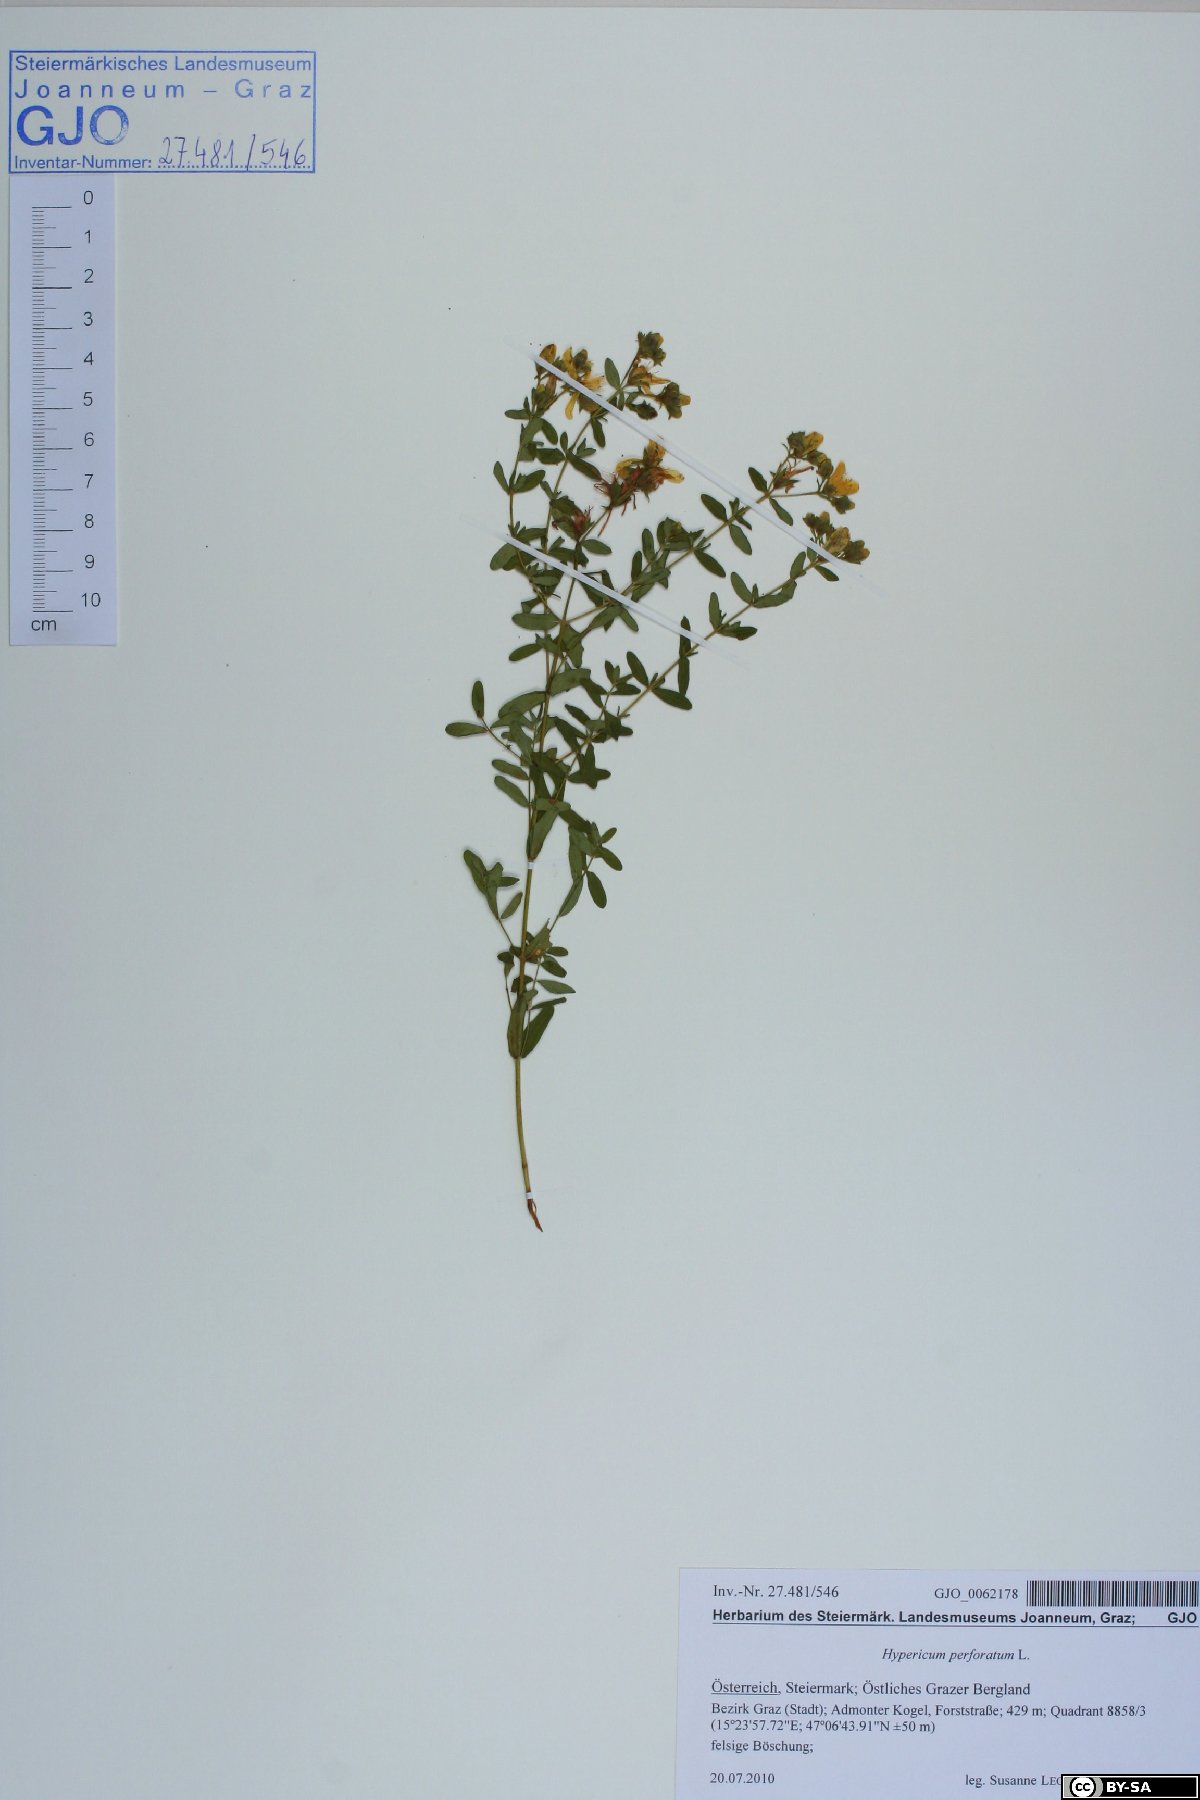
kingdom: Plantae
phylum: Tracheophyta
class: Magnoliopsida
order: Malpighiales
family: Hypericaceae
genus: Hypericum
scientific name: Hypericum perforatum
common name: Common st. johnswort
